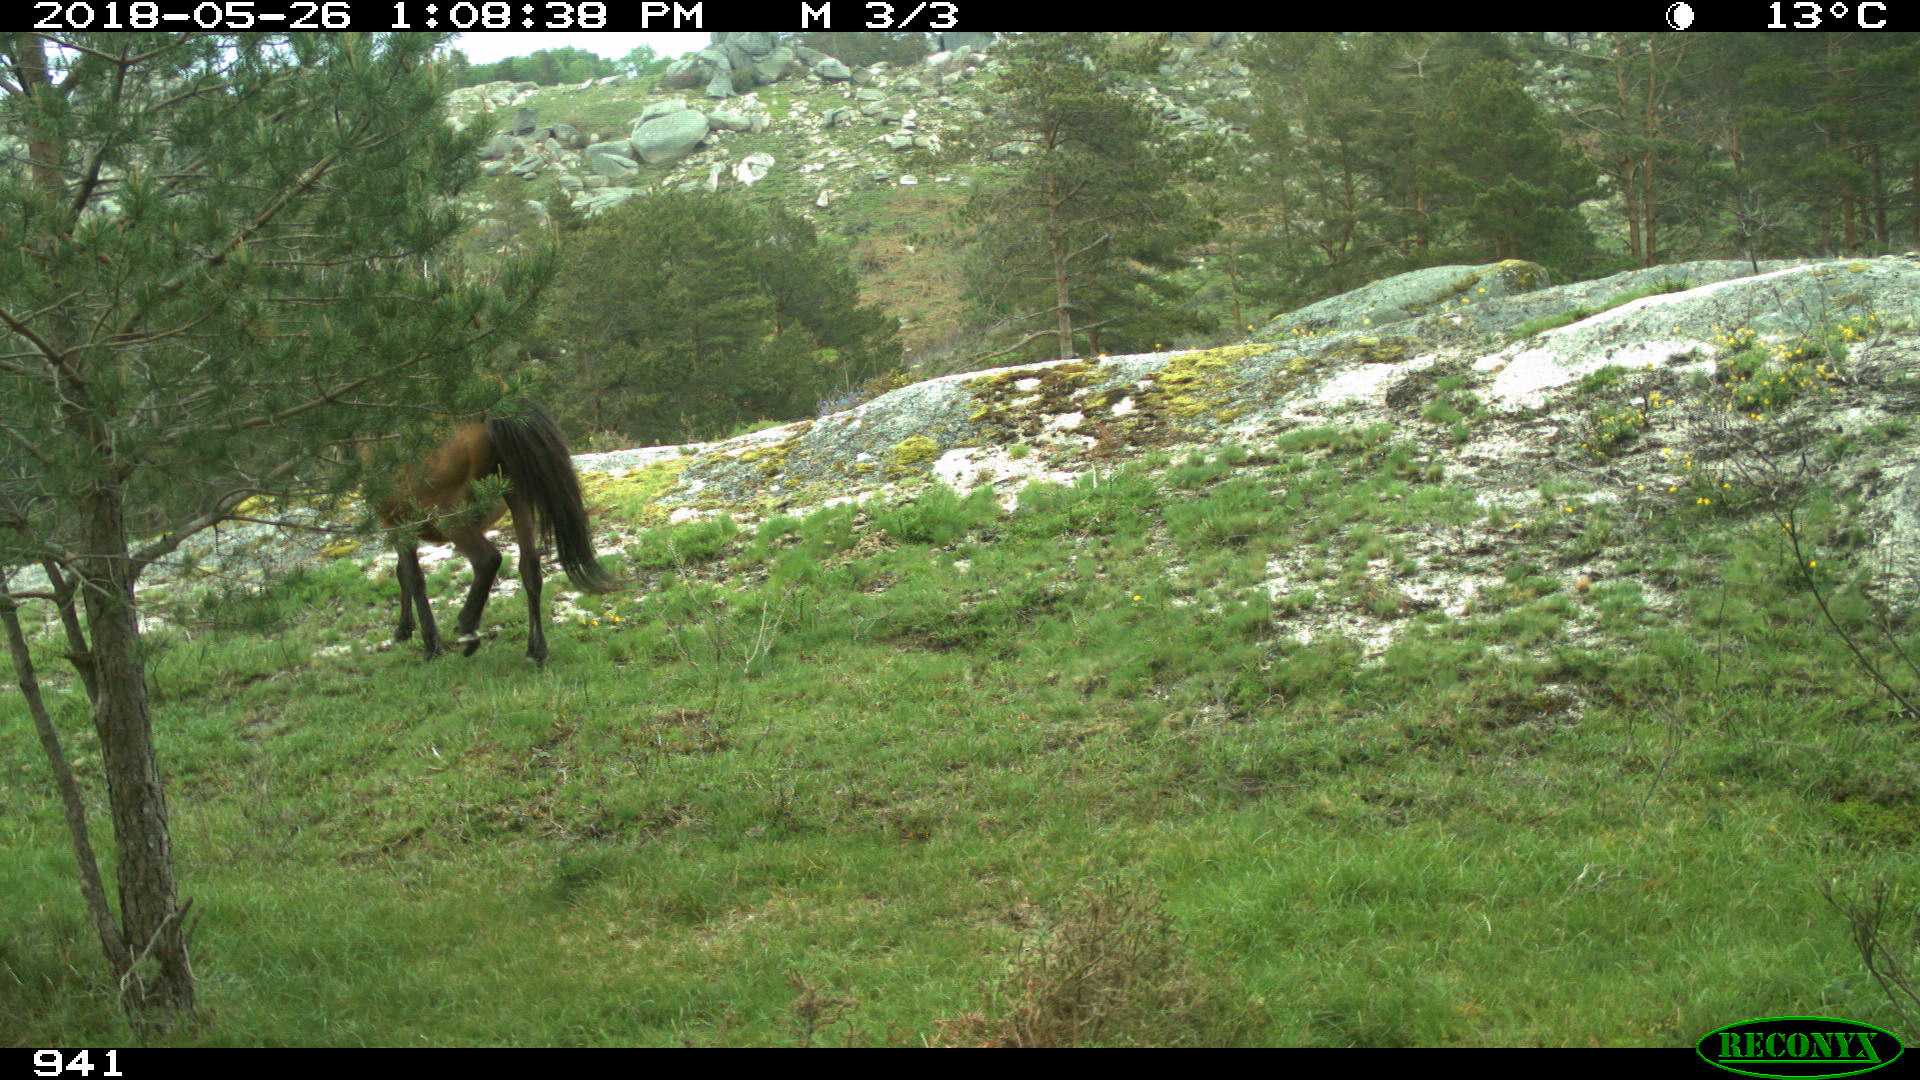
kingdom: Animalia
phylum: Chordata
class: Mammalia
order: Perissodactyla
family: Equidae
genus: Equus
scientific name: Equus caballus
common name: Horse
